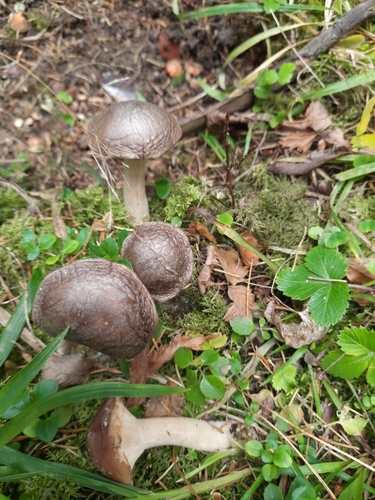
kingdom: Fungi
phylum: Basidiomycota
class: Agaricomycetes
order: Agaricales
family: Tricholomataceae
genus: Clitocybe
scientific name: Clitocybe nebularis
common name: Clouded agaric
